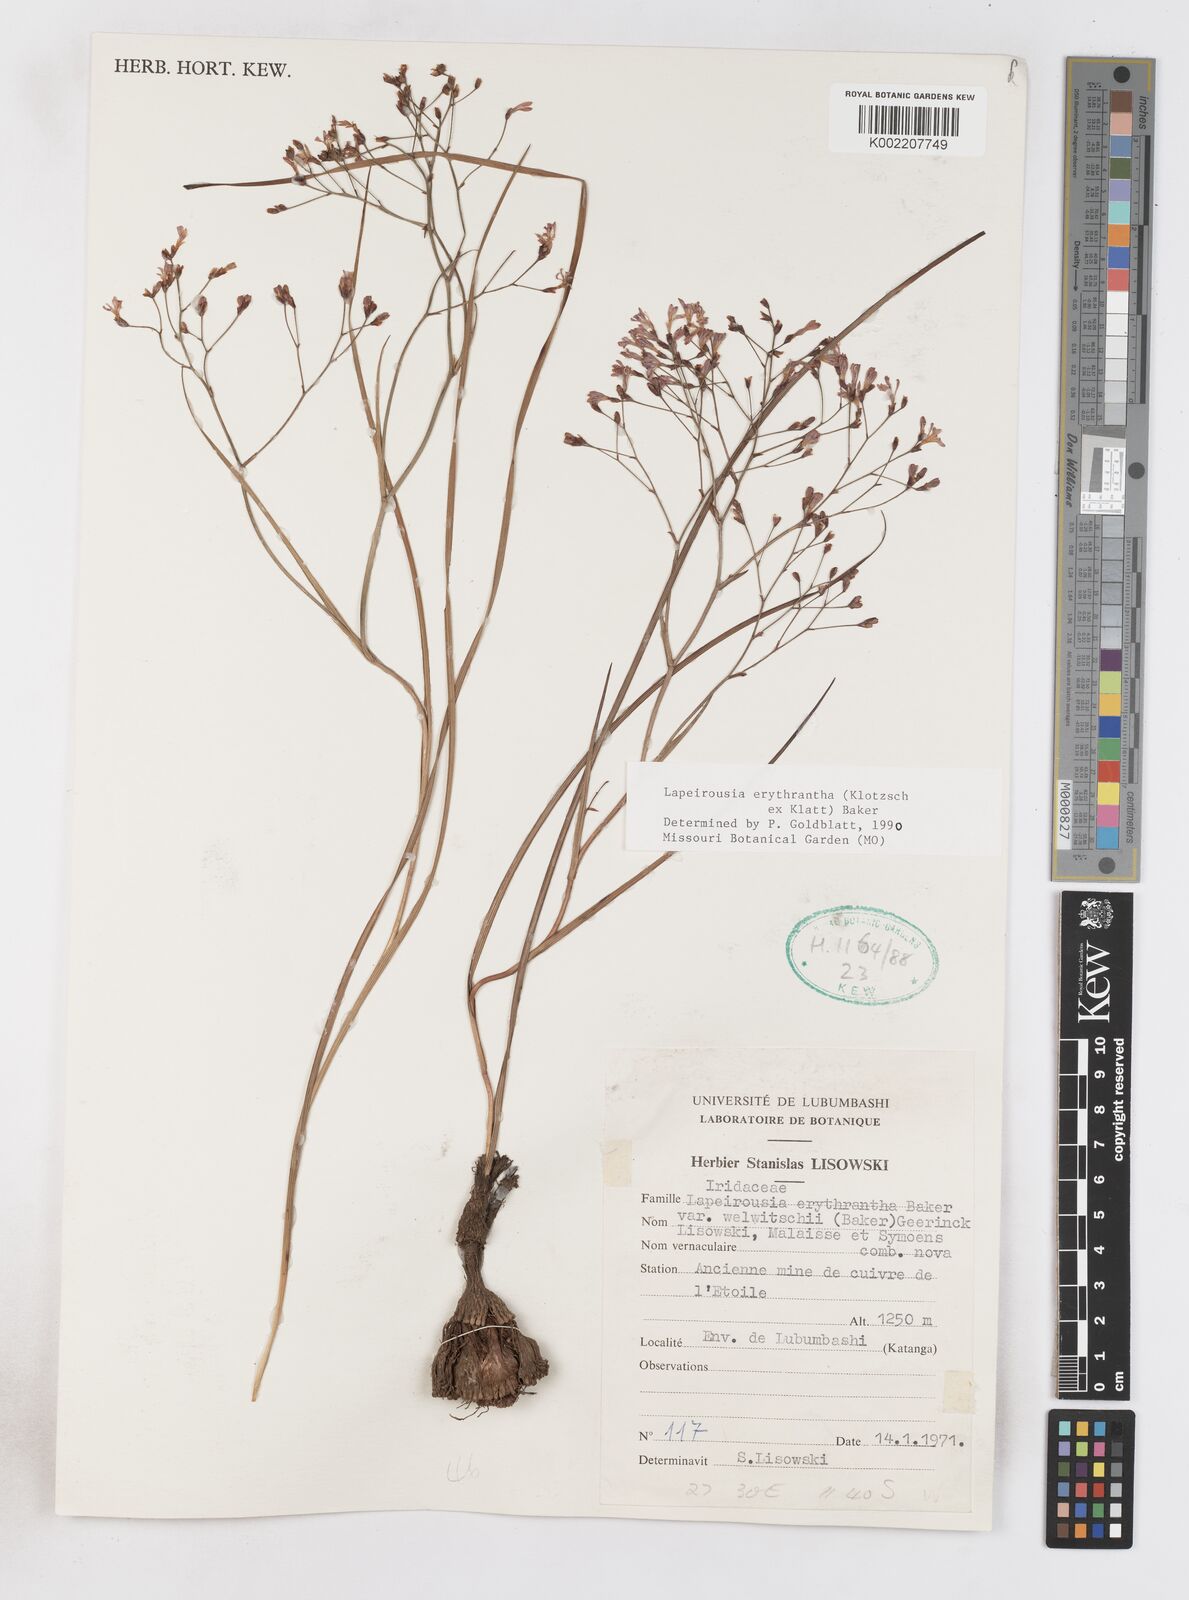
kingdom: Plantae
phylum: Tracheophyta
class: Liliopsida
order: Asparagales
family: Iridaceae
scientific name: Iridaceae
